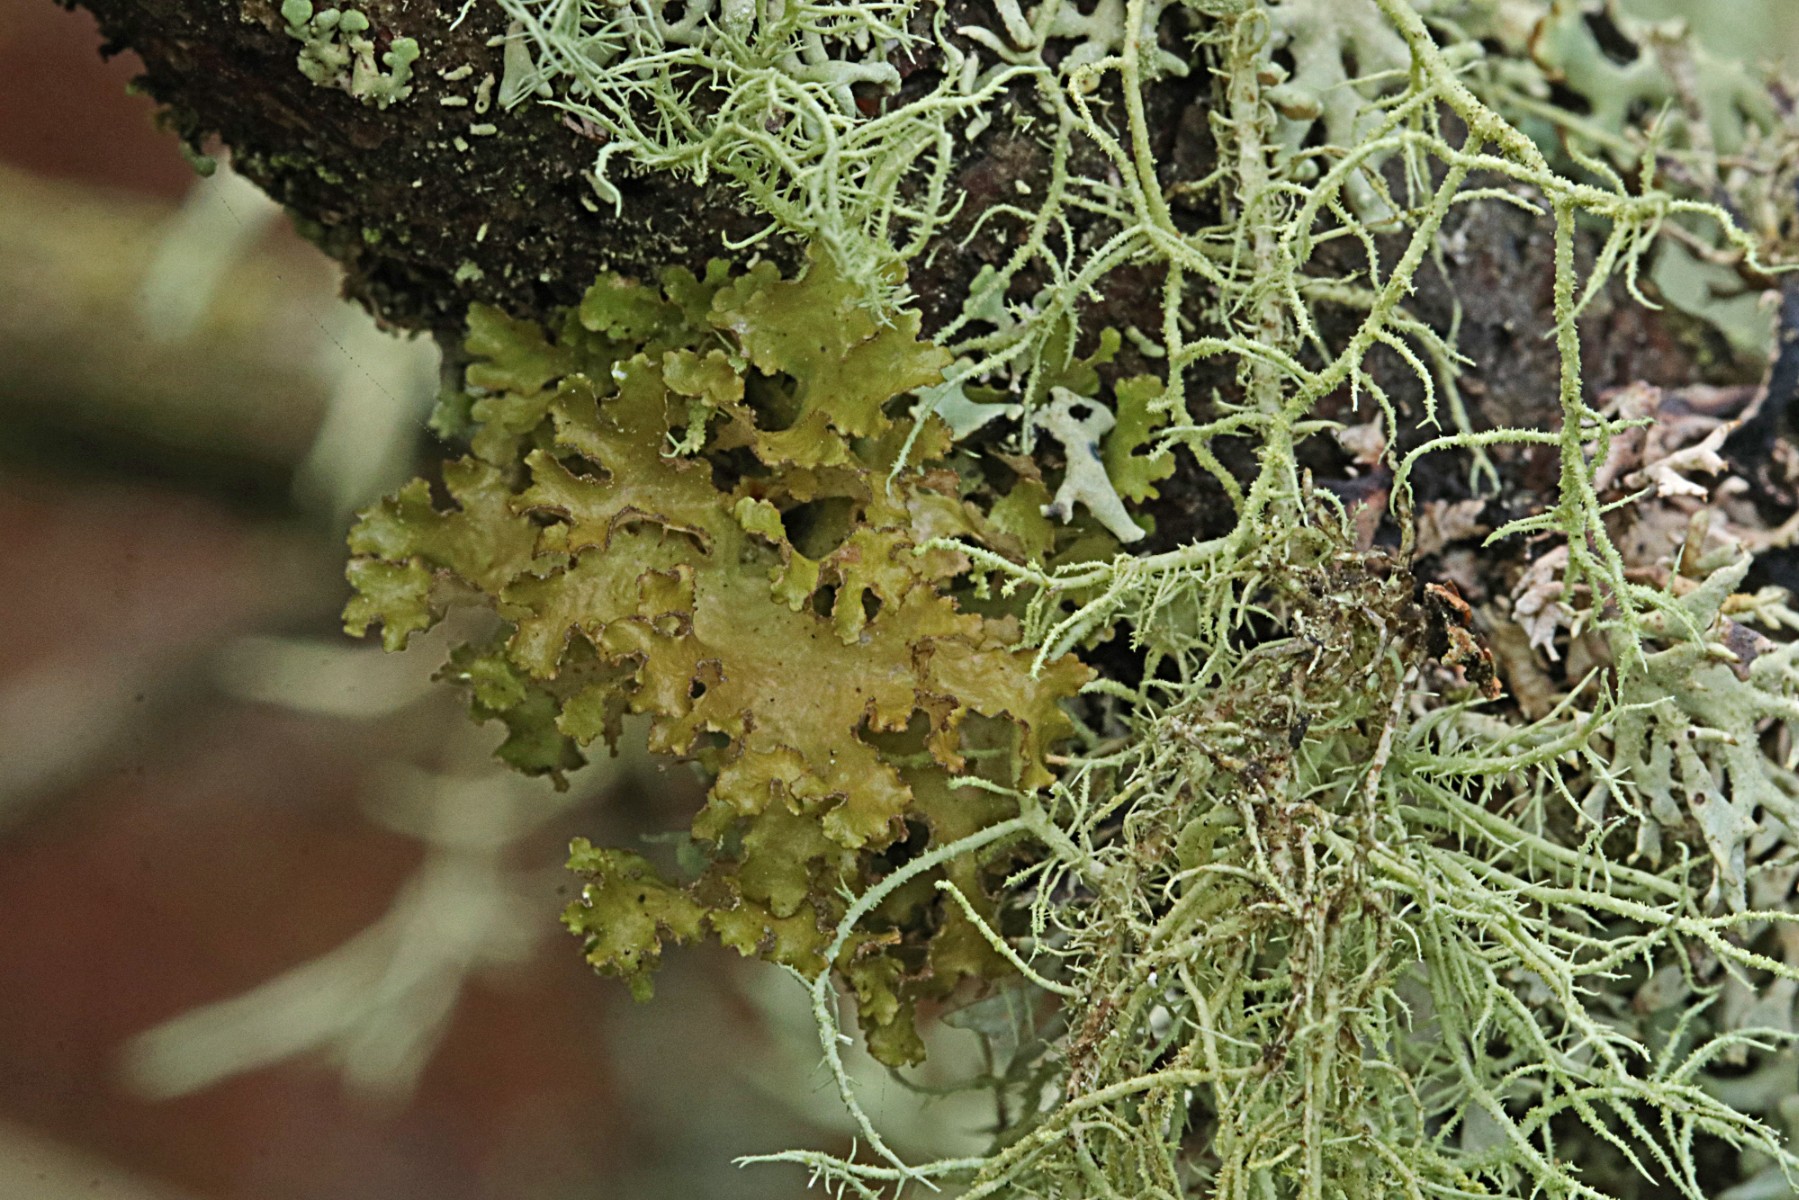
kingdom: Fungi
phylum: Ascomycota
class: Lecanoromycetes
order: Lecanorales
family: Parmeliaceae
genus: Nephromopsis
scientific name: Nephromopsis chlorophylla
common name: olivenbrun kruslav
